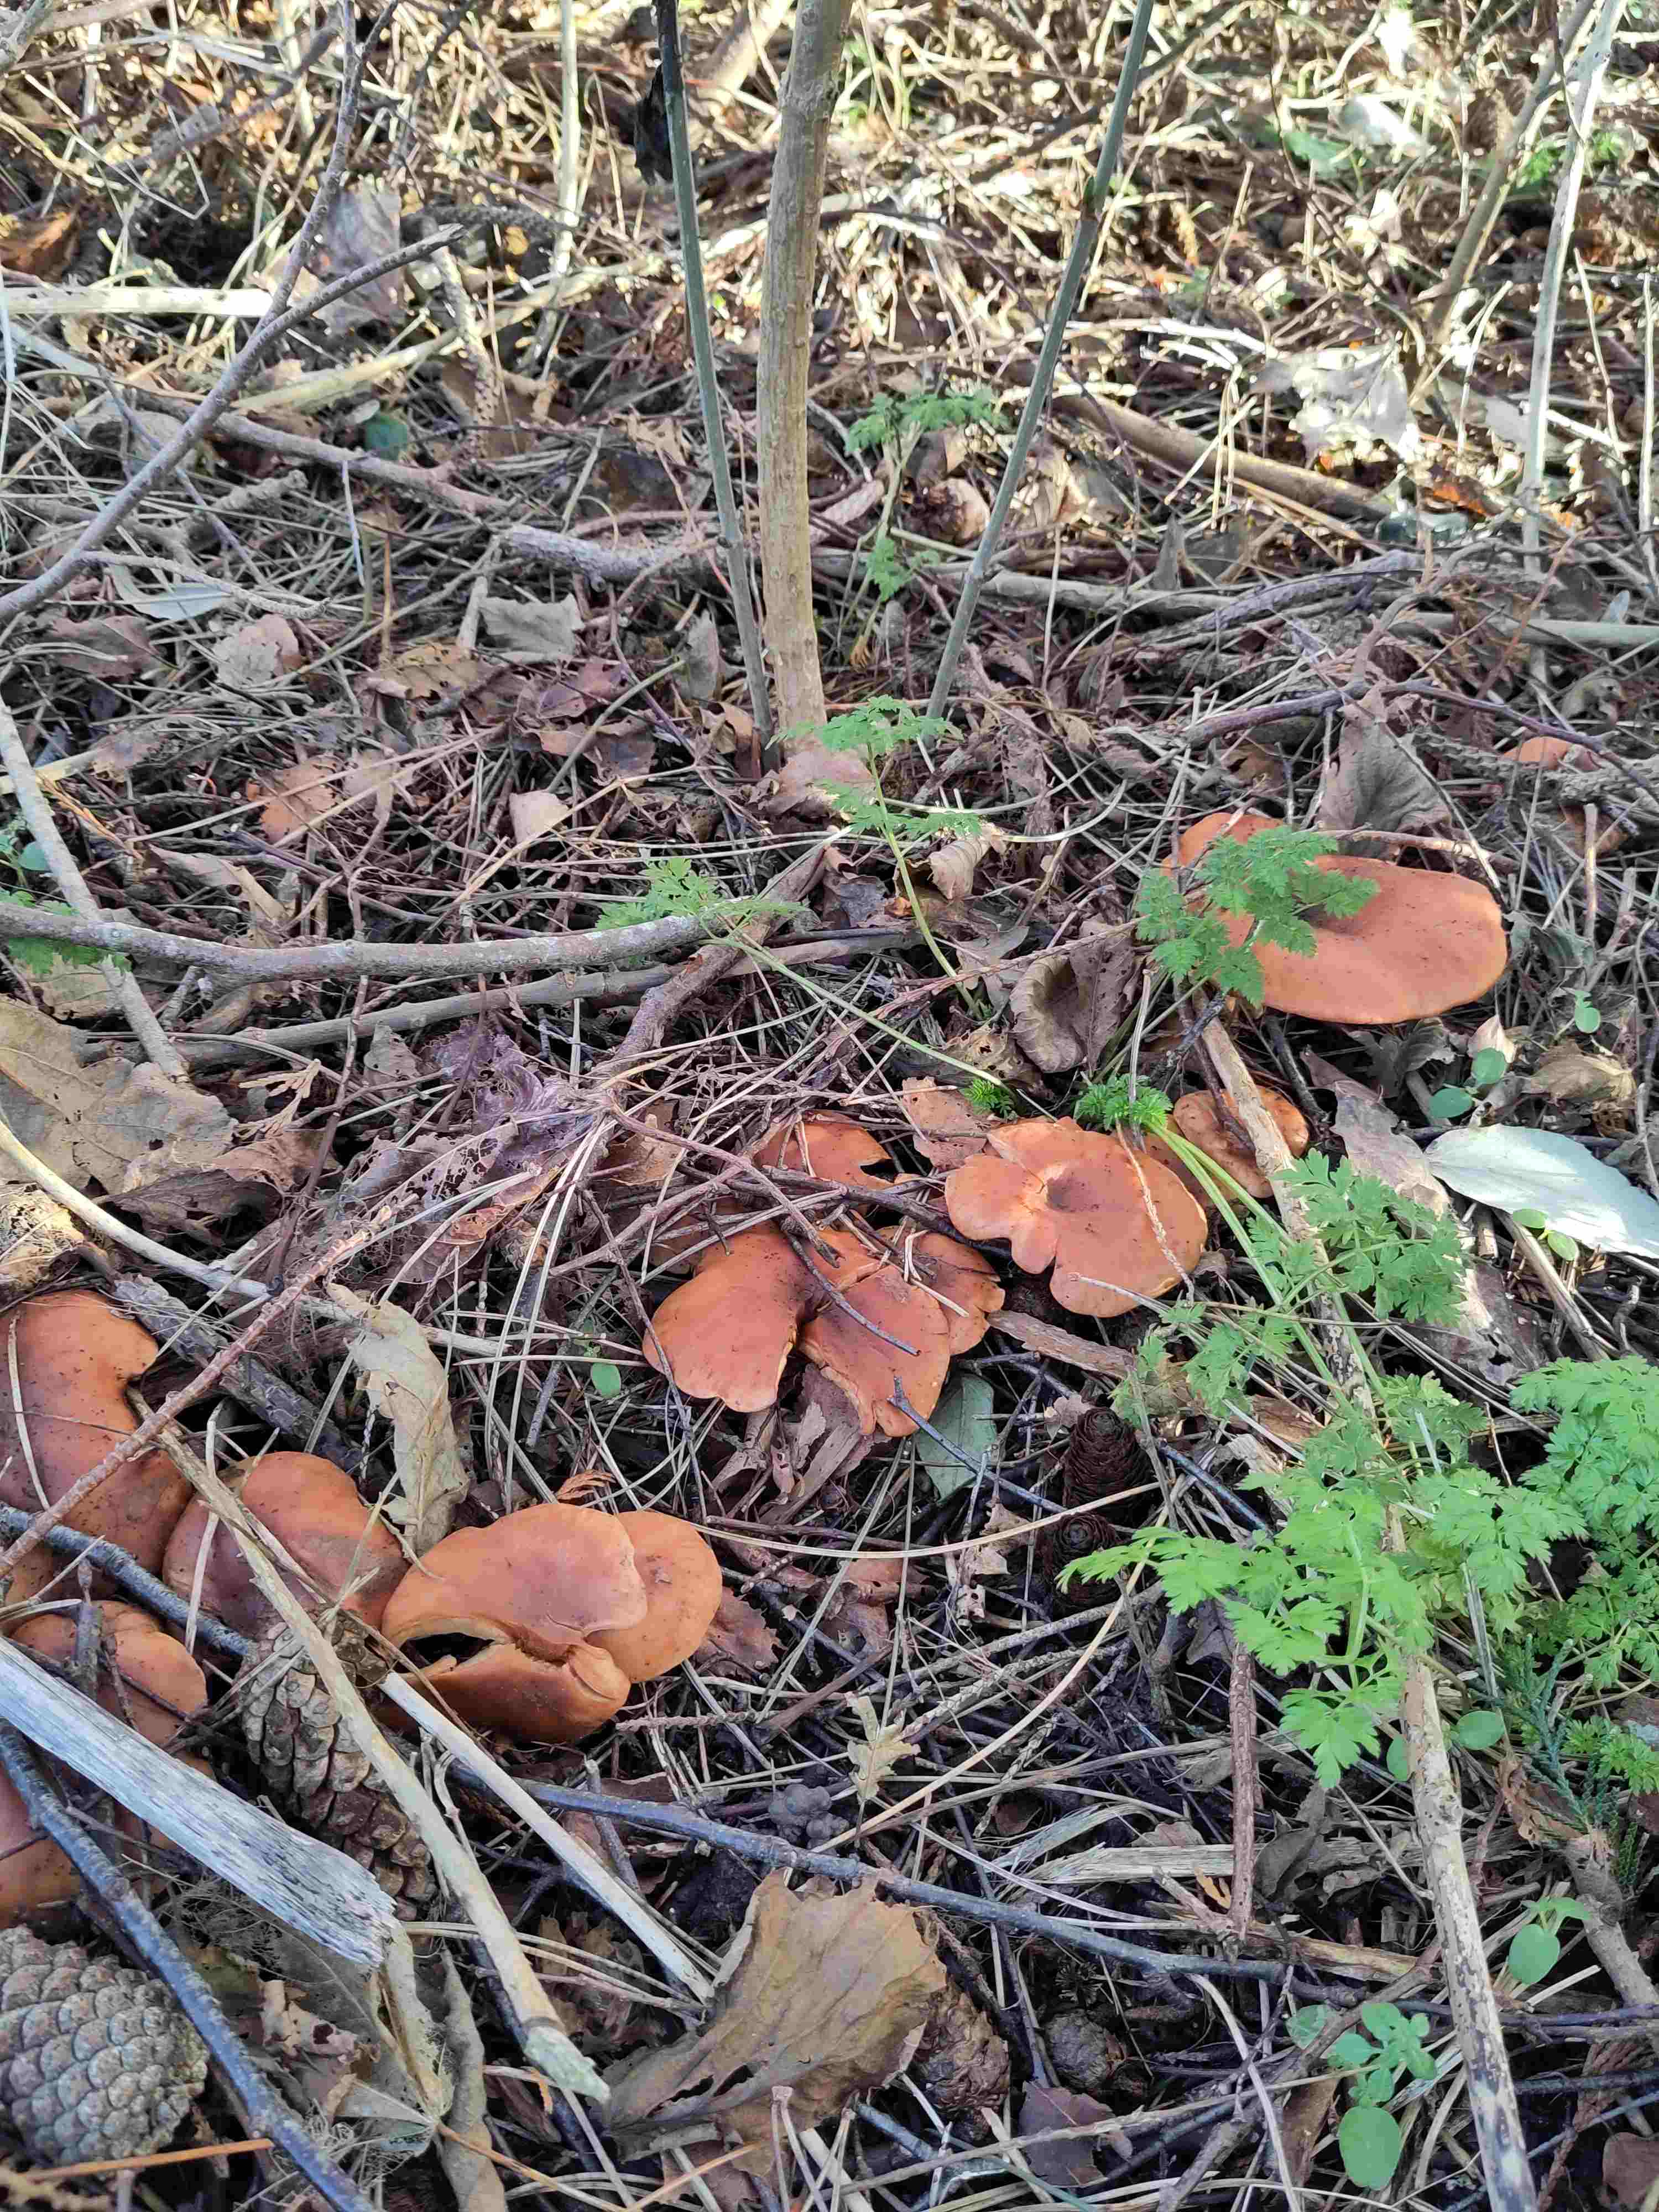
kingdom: Fungi
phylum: Basidiomycota
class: Agaricomycetes
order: Agaricales
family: Tricholomataceae
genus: Paralepista
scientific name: Paralepista flaccida
